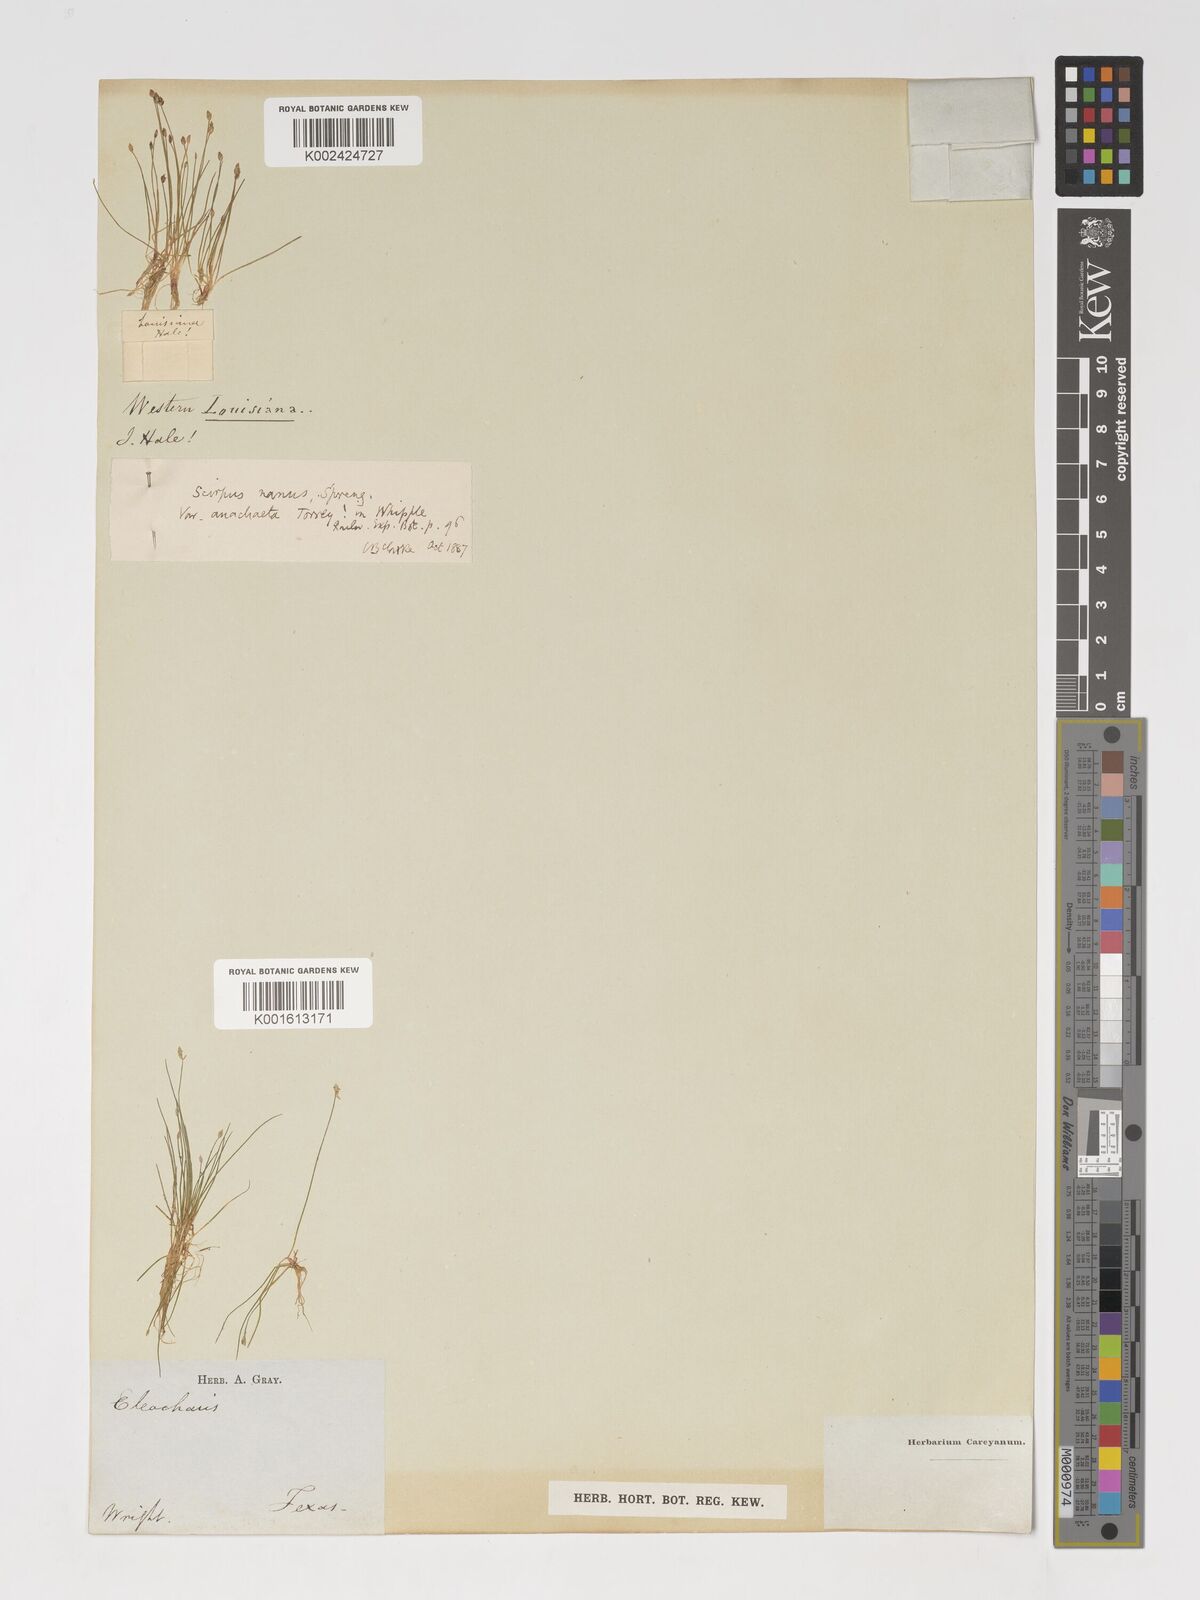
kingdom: Plantae
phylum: Tracheophyta
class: Liliopsida
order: Poales
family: Cyperaceae
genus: Eleocharis
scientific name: Eleocharis parvula
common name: Dwarf spike-rush
